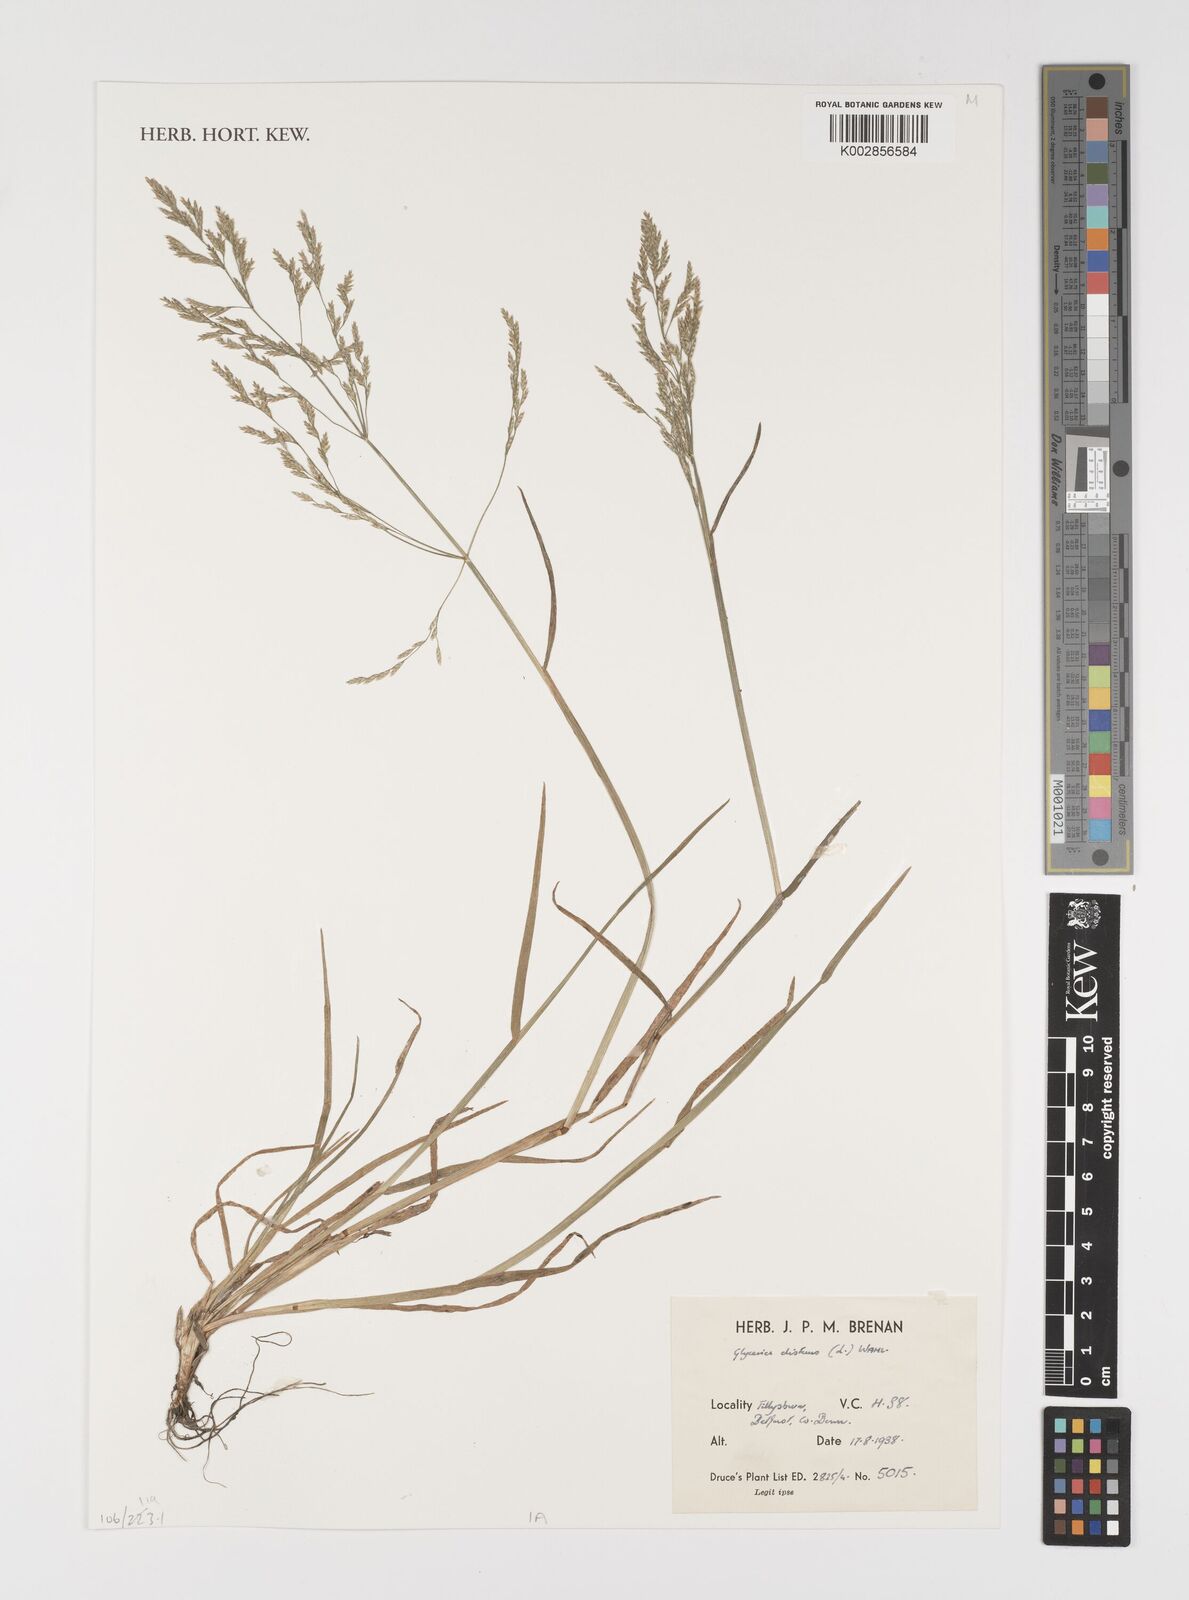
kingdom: Plantae
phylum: Tracheophyta
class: Liliopsida
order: Poales
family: Poaceae
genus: Puccinellia
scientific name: Puccinellia distans
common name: Weeping alkaligrass
